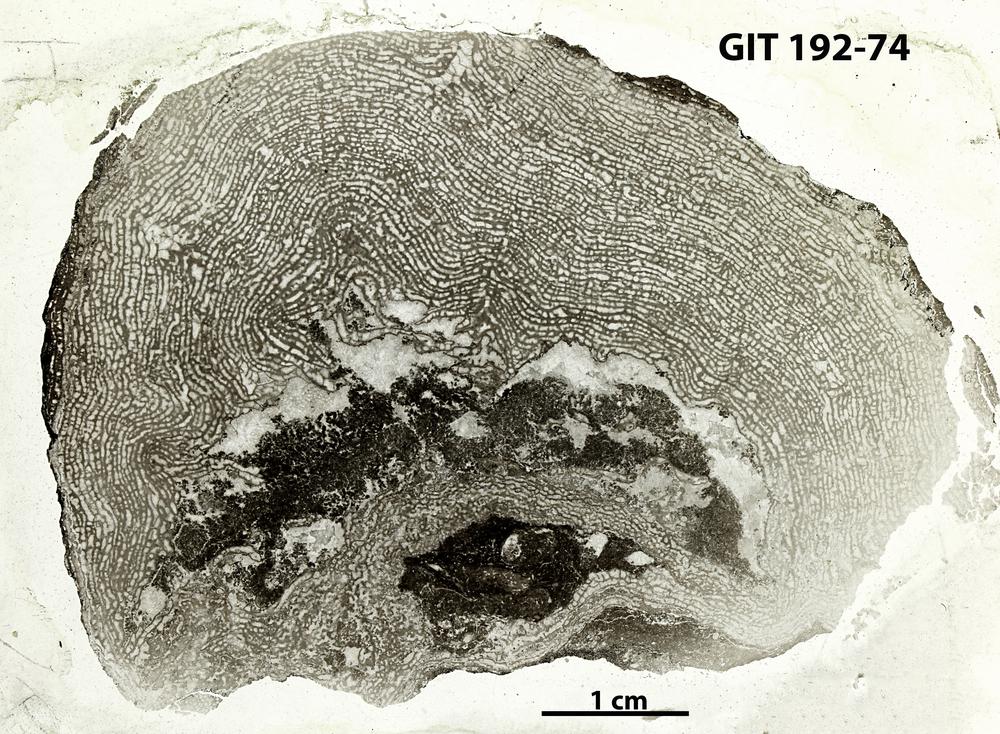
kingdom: Animalia
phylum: Porifera
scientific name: Porifera
